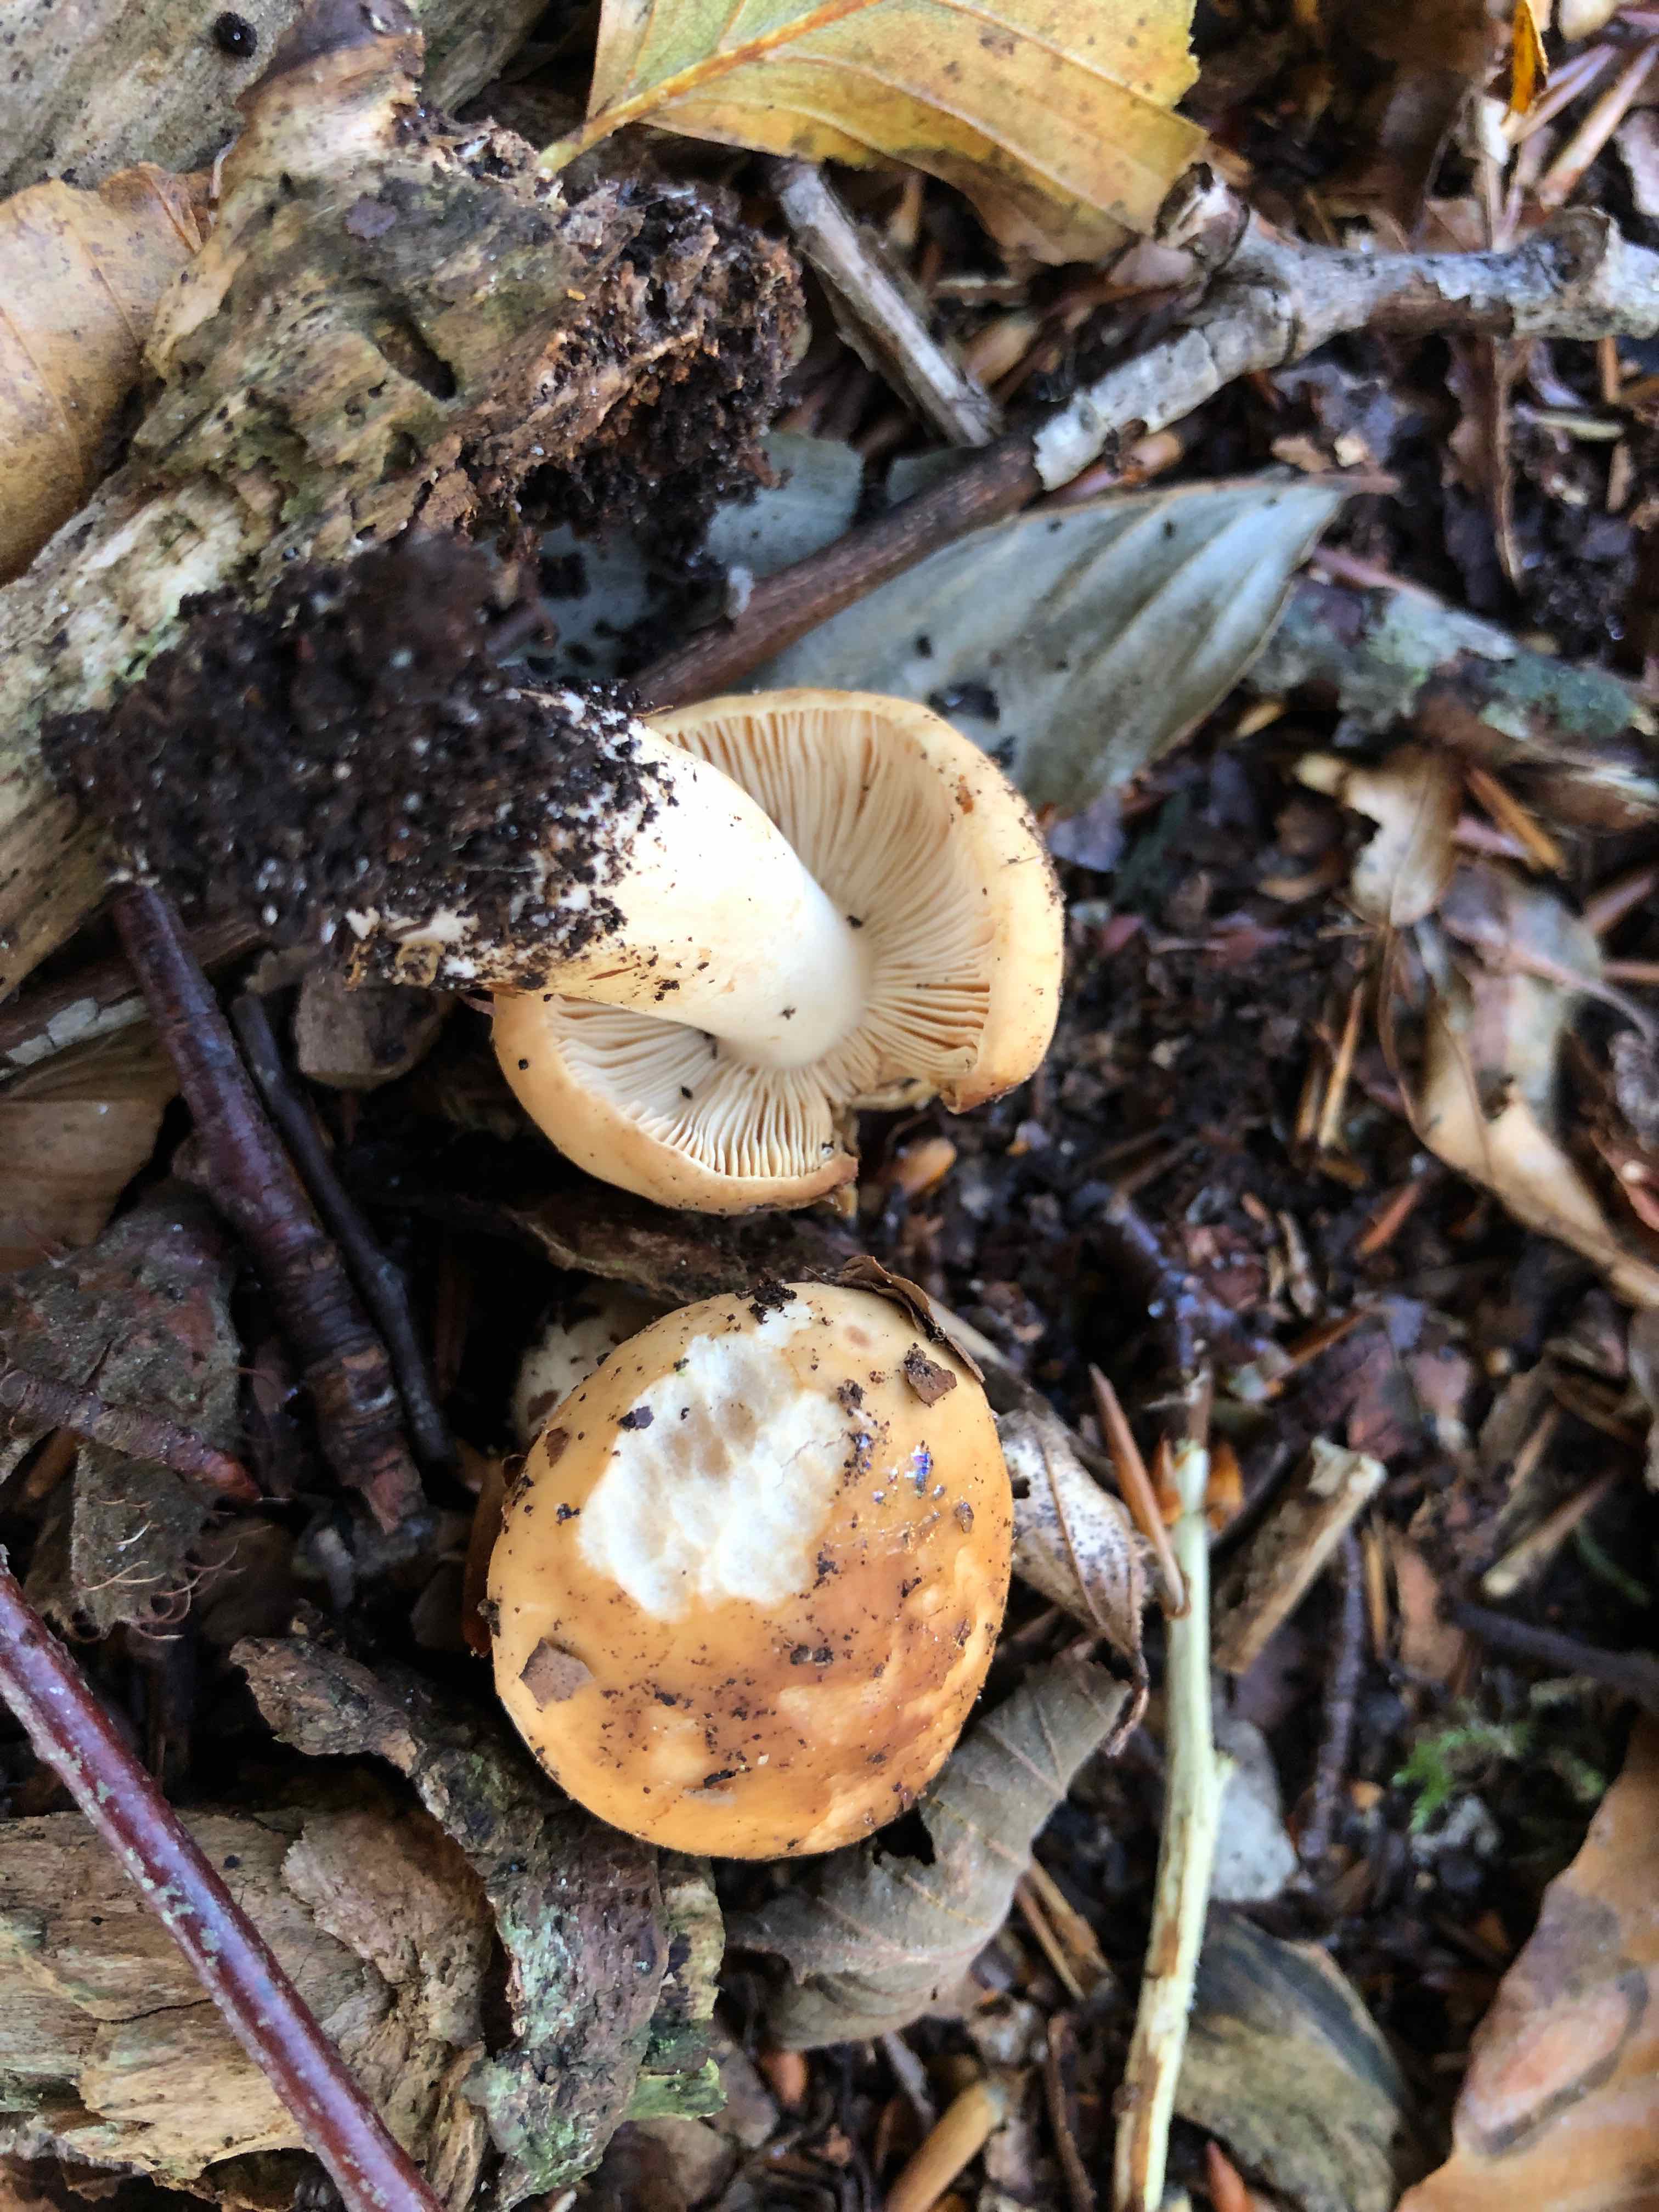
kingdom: Fungi
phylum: Basidiomycota
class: Agaricomycetes
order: Russulales
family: Russulaceae
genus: Russula
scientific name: Russula fellea
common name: galde-skørhat
